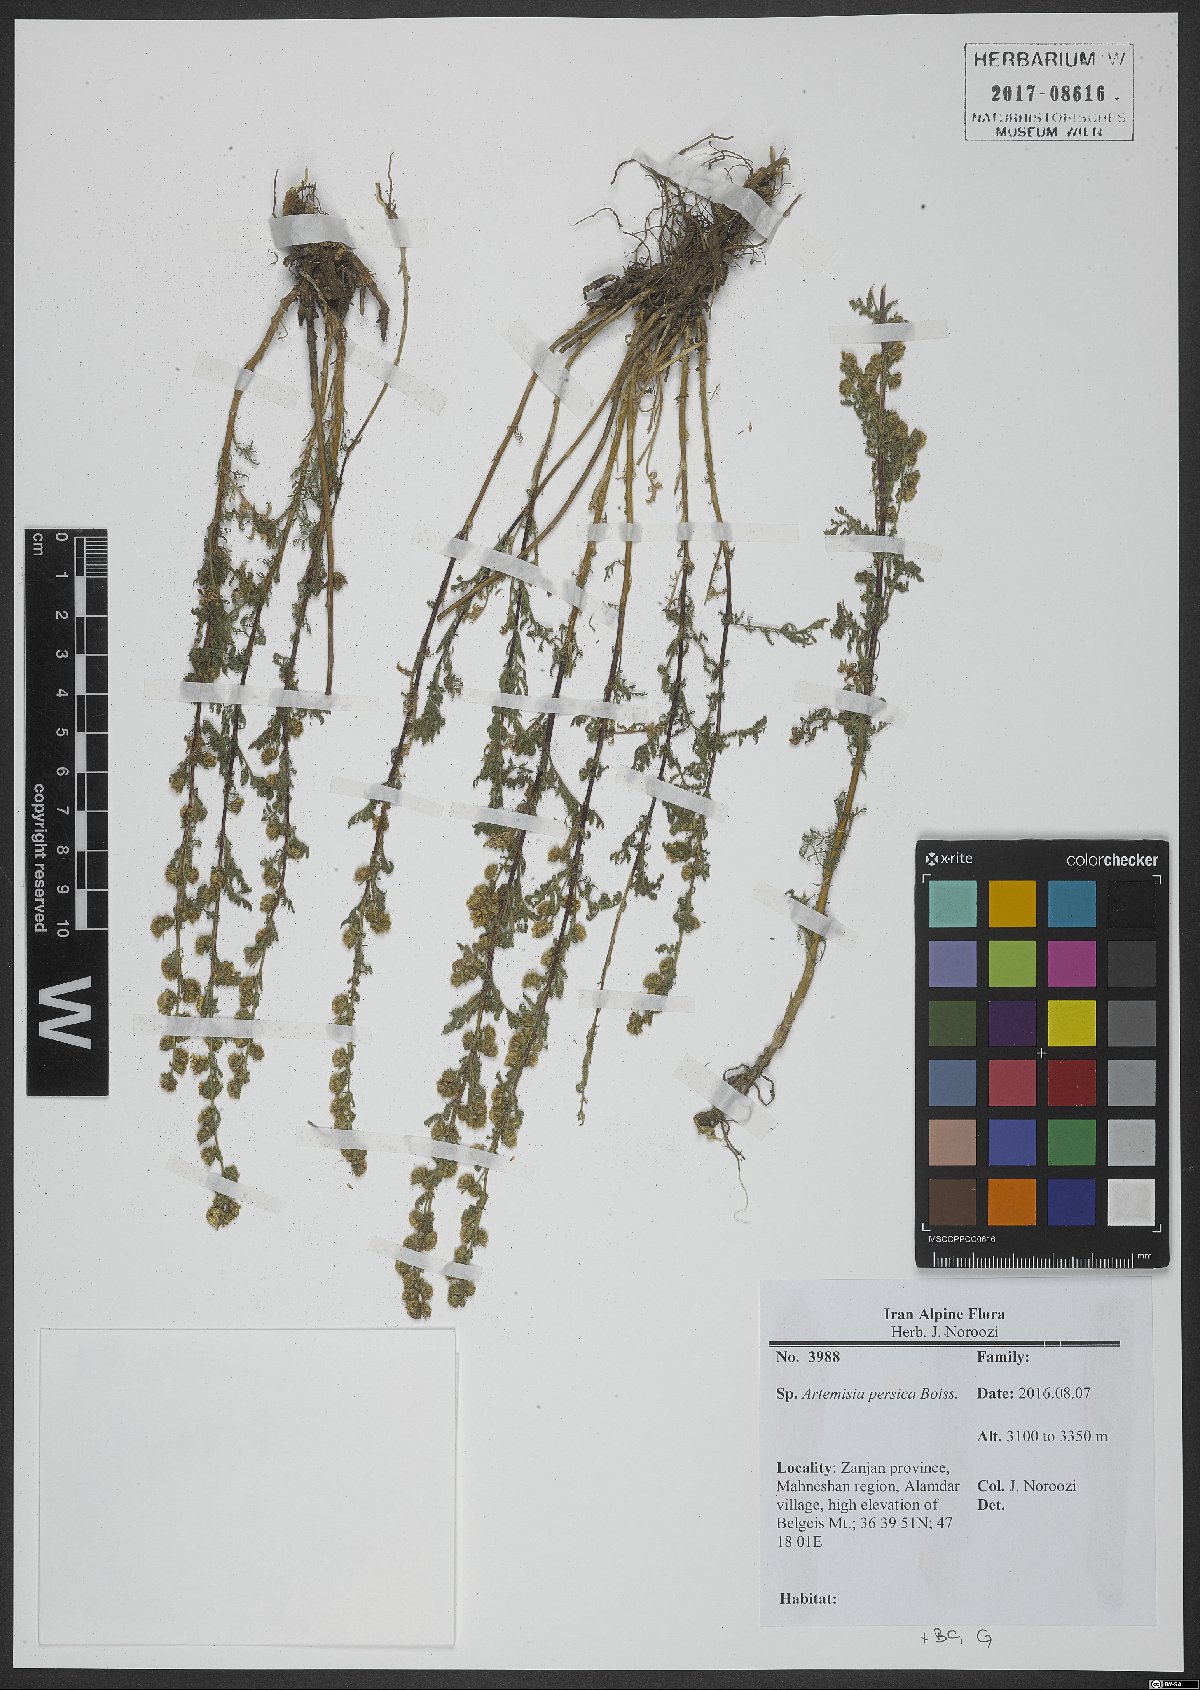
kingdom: Plantae
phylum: Tracheophyta
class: Magnoliopsida
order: Asterales
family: Asteraceae
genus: Artemisia
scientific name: Artemisia persica
